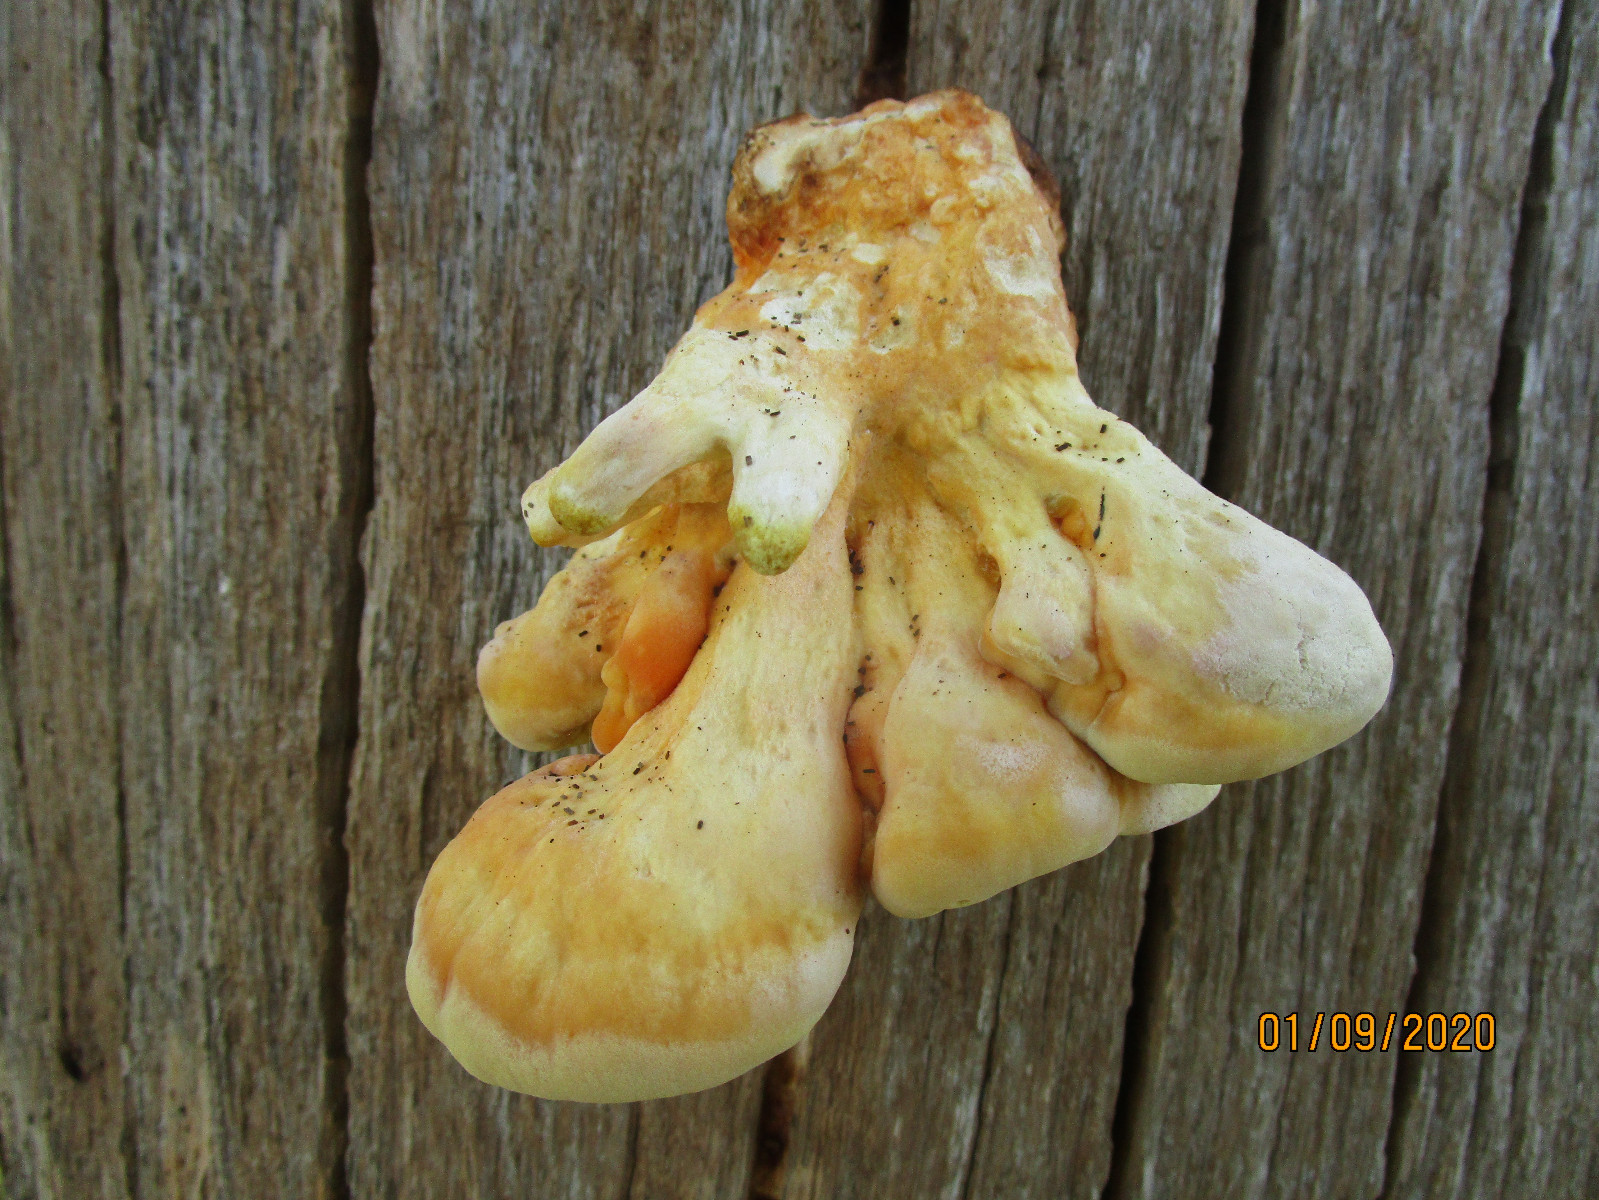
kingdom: Fungi
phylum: Basidiomycota
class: Agaricomycetes
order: Polyporales
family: Laetiporaceae
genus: Laetiporus
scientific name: Laetiporus sulphureus
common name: svovlporesvamp
